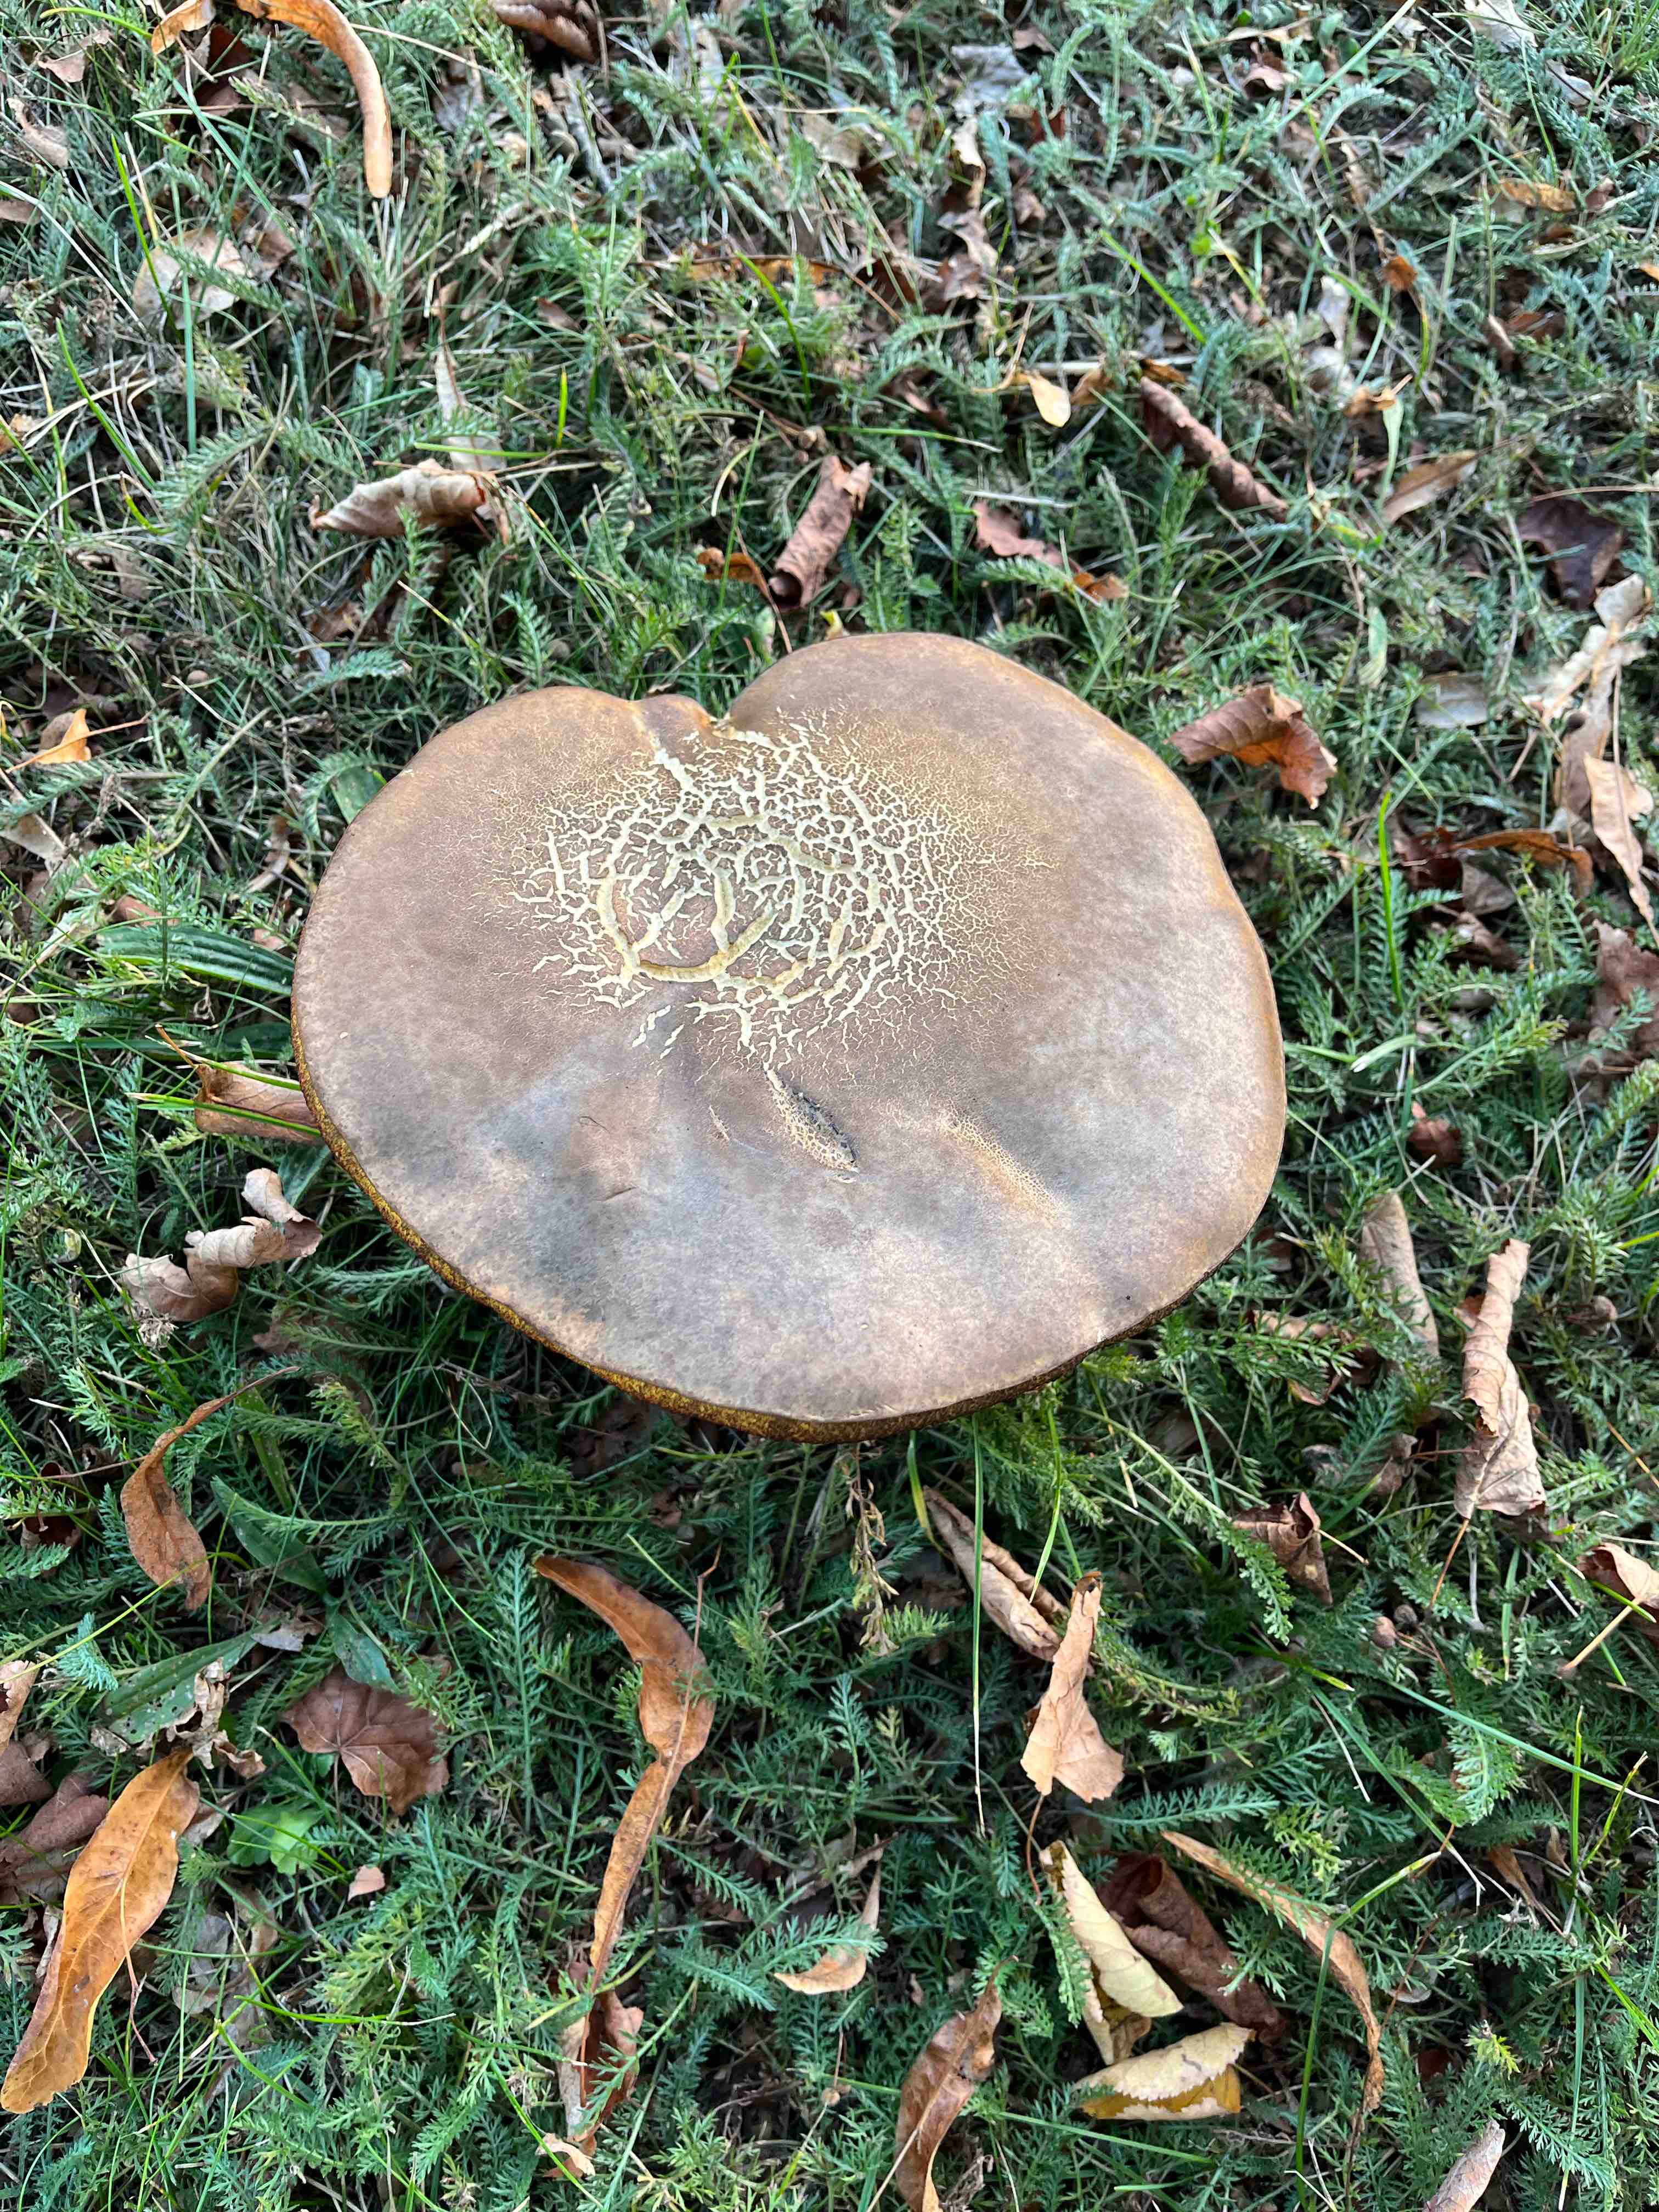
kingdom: Fungi
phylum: Basidiomycota
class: Agaricomycetes
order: Boletales
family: Boletaceae
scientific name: Boletaceae
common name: rørhatfamilien
